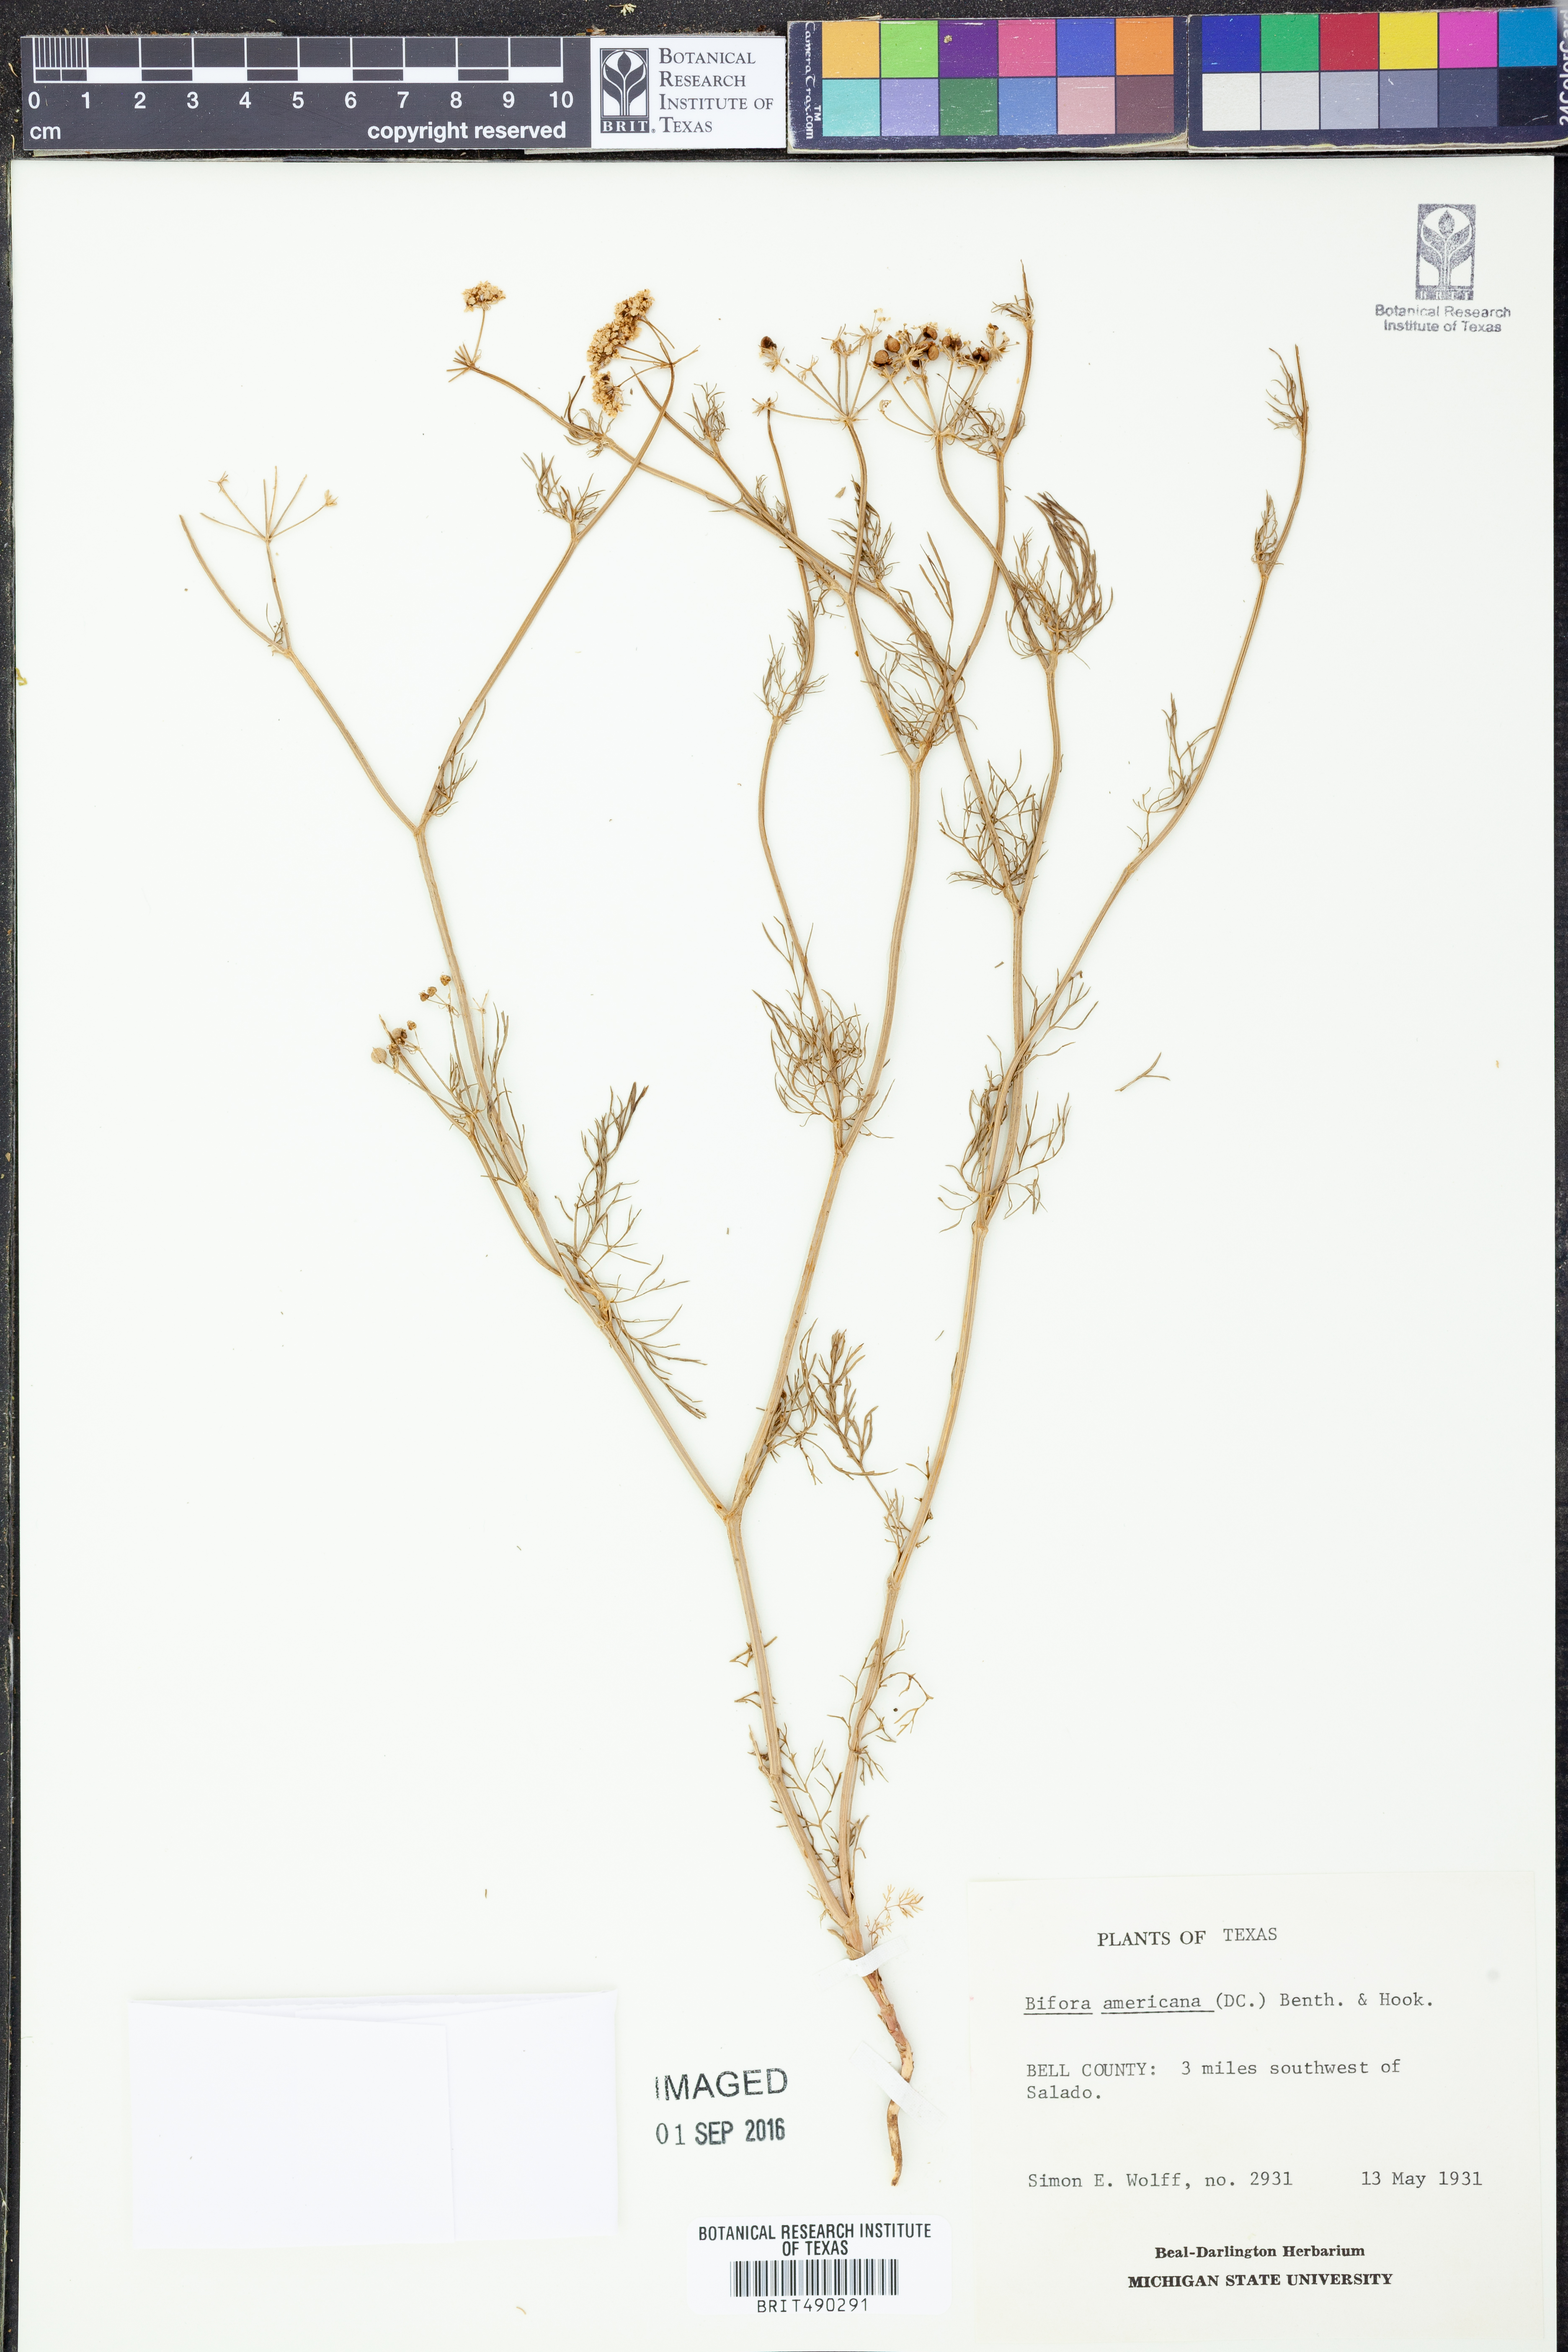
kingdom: Plantae
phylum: Tracheophyta
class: Magnoliopsida
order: Apiales
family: Apiaceae
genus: Atrema
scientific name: Atrema americanum
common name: Prairie-bishop
